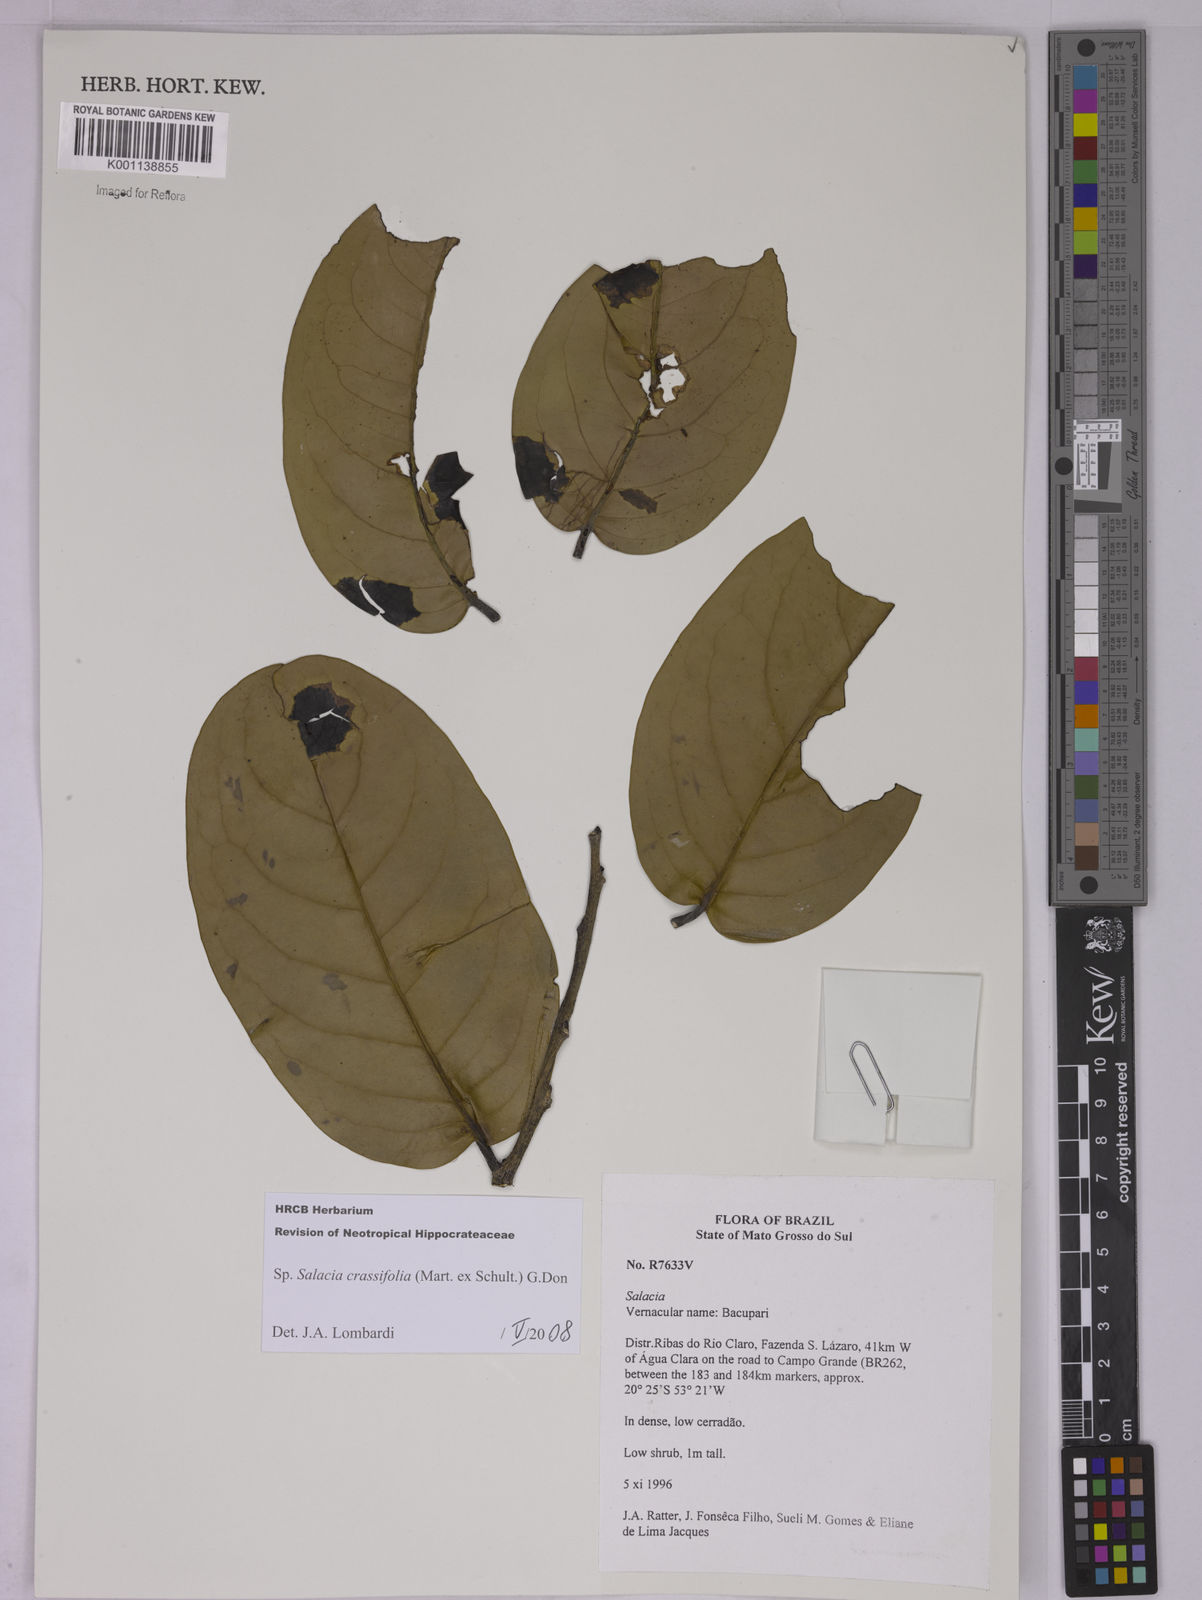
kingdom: Plantae
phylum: Tracheophyta
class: Magnoliopsida
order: Celastrales
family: Celastraceae
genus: Salacia
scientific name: Salacia crassifolia
